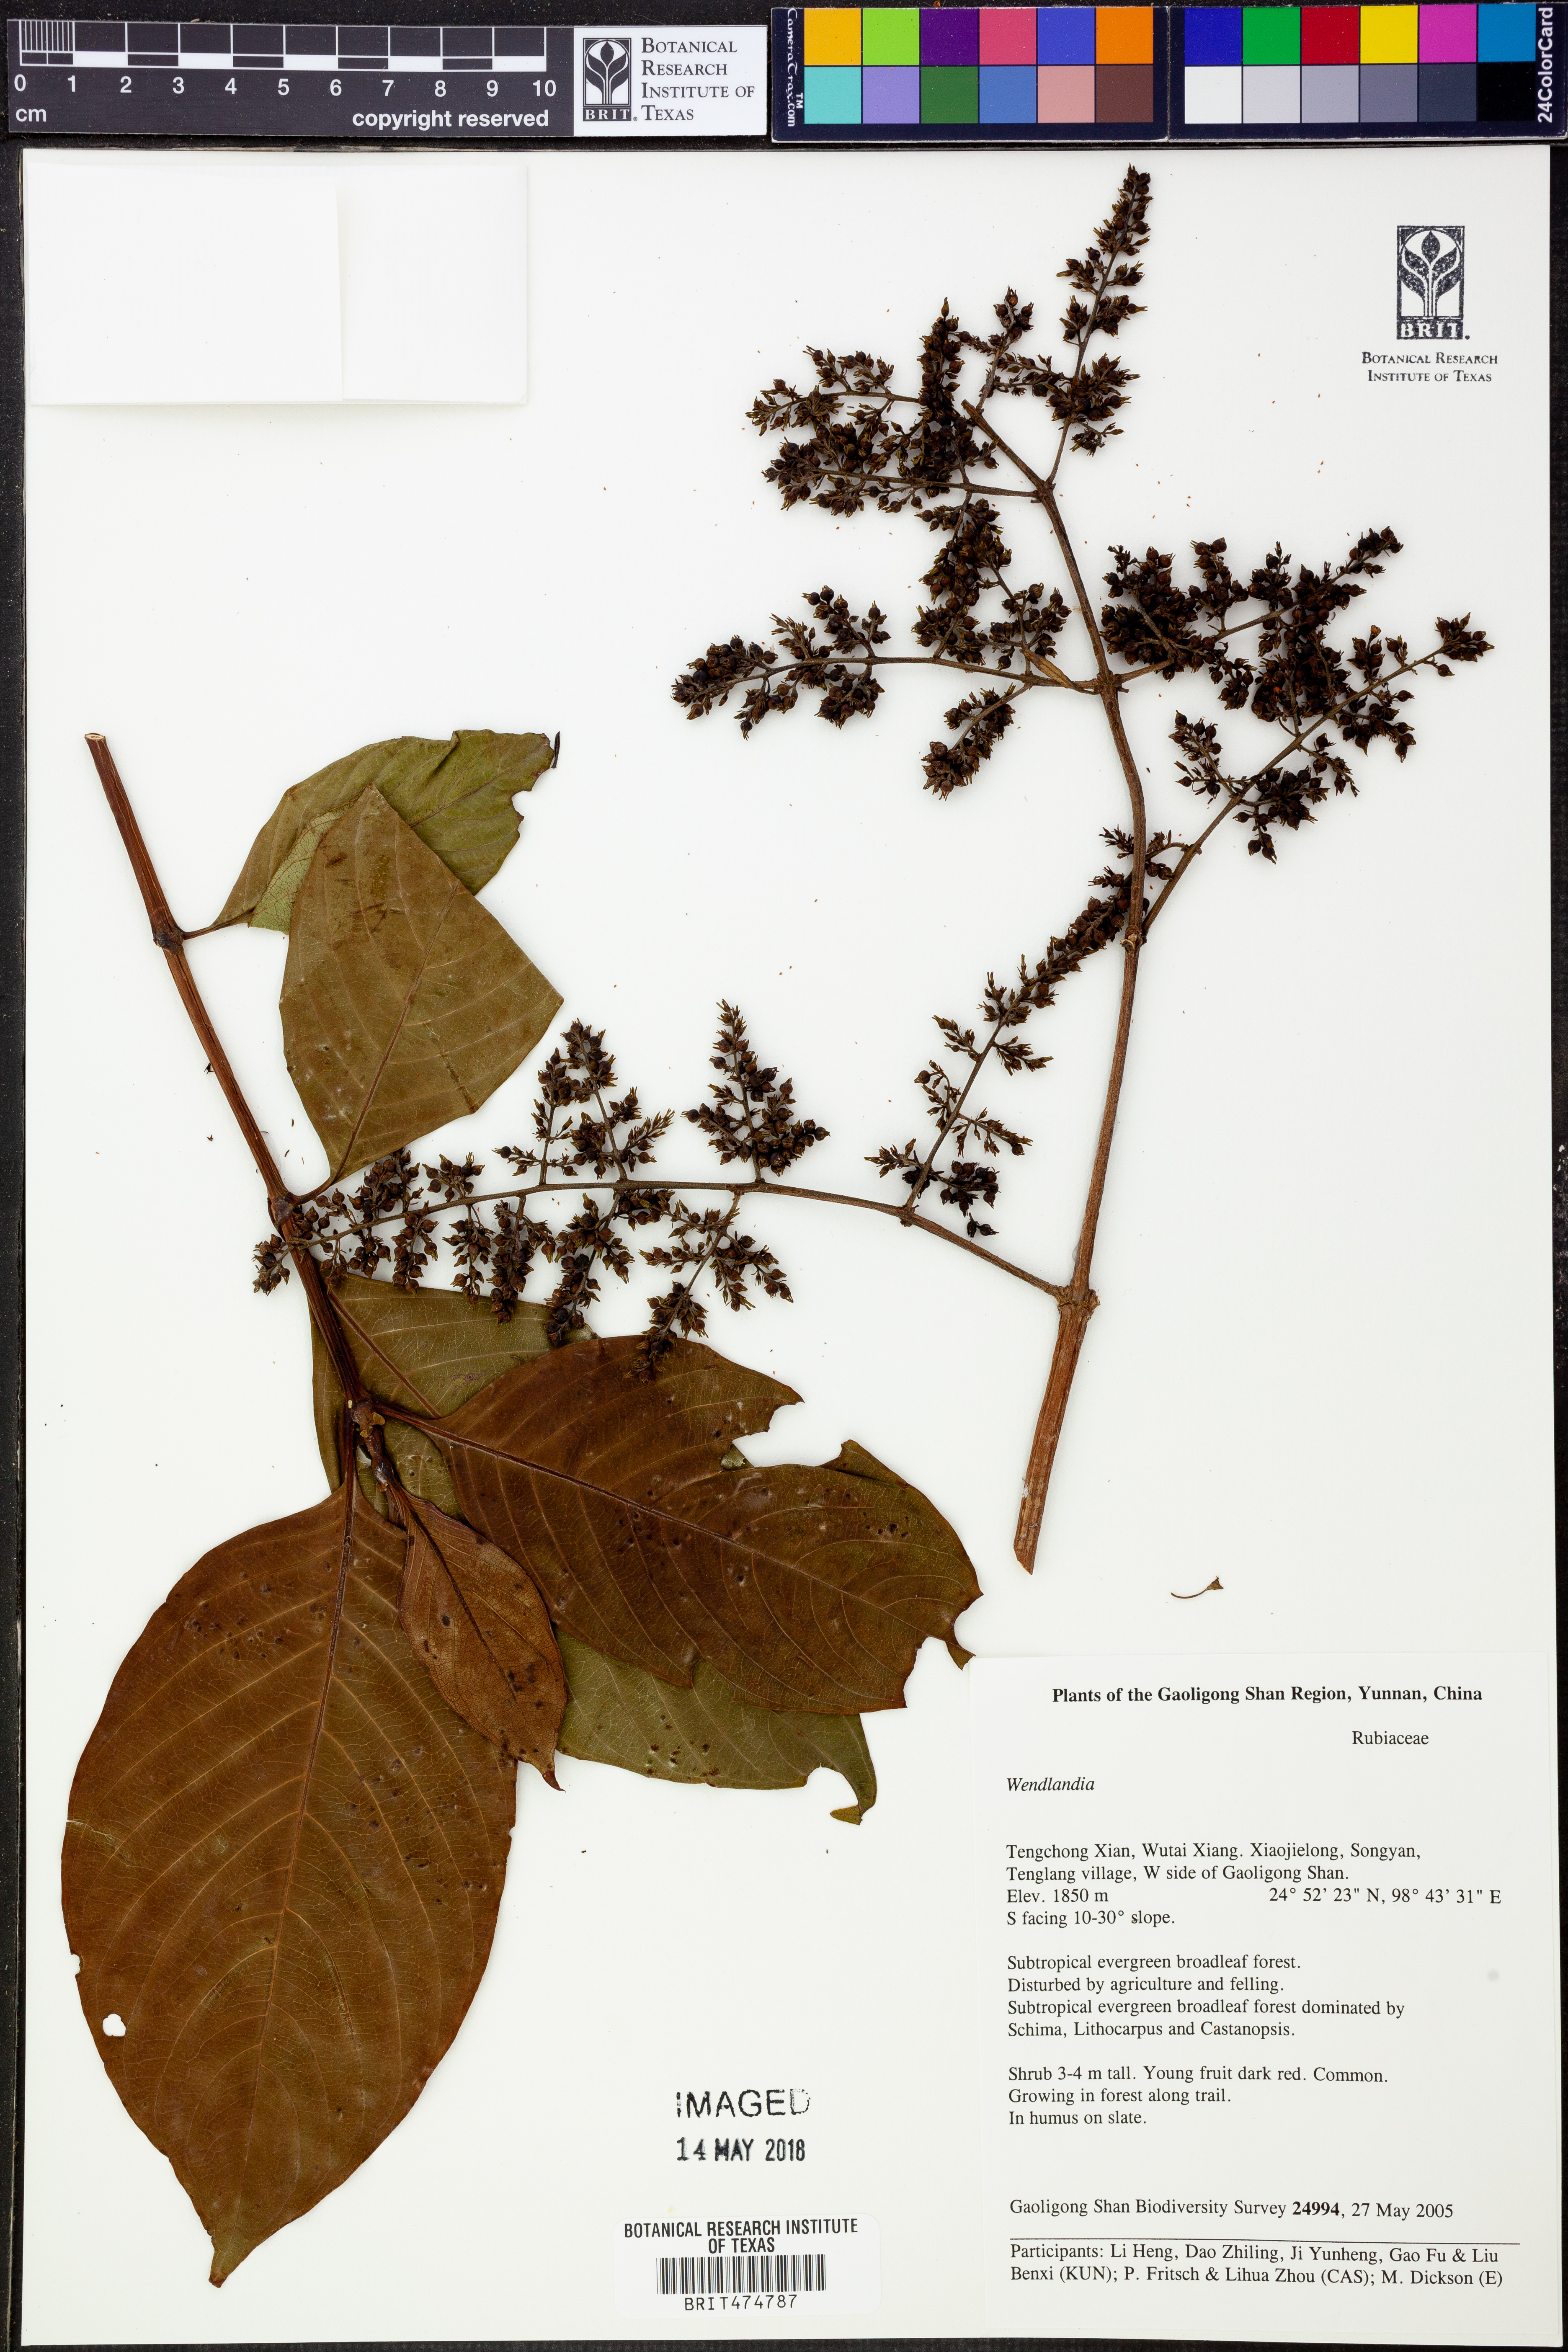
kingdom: Plantae
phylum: Tracheophyta
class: Magnoliopsida
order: Gentianales
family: Rubiaceae
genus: Wendlandia
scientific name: Wendlandia
